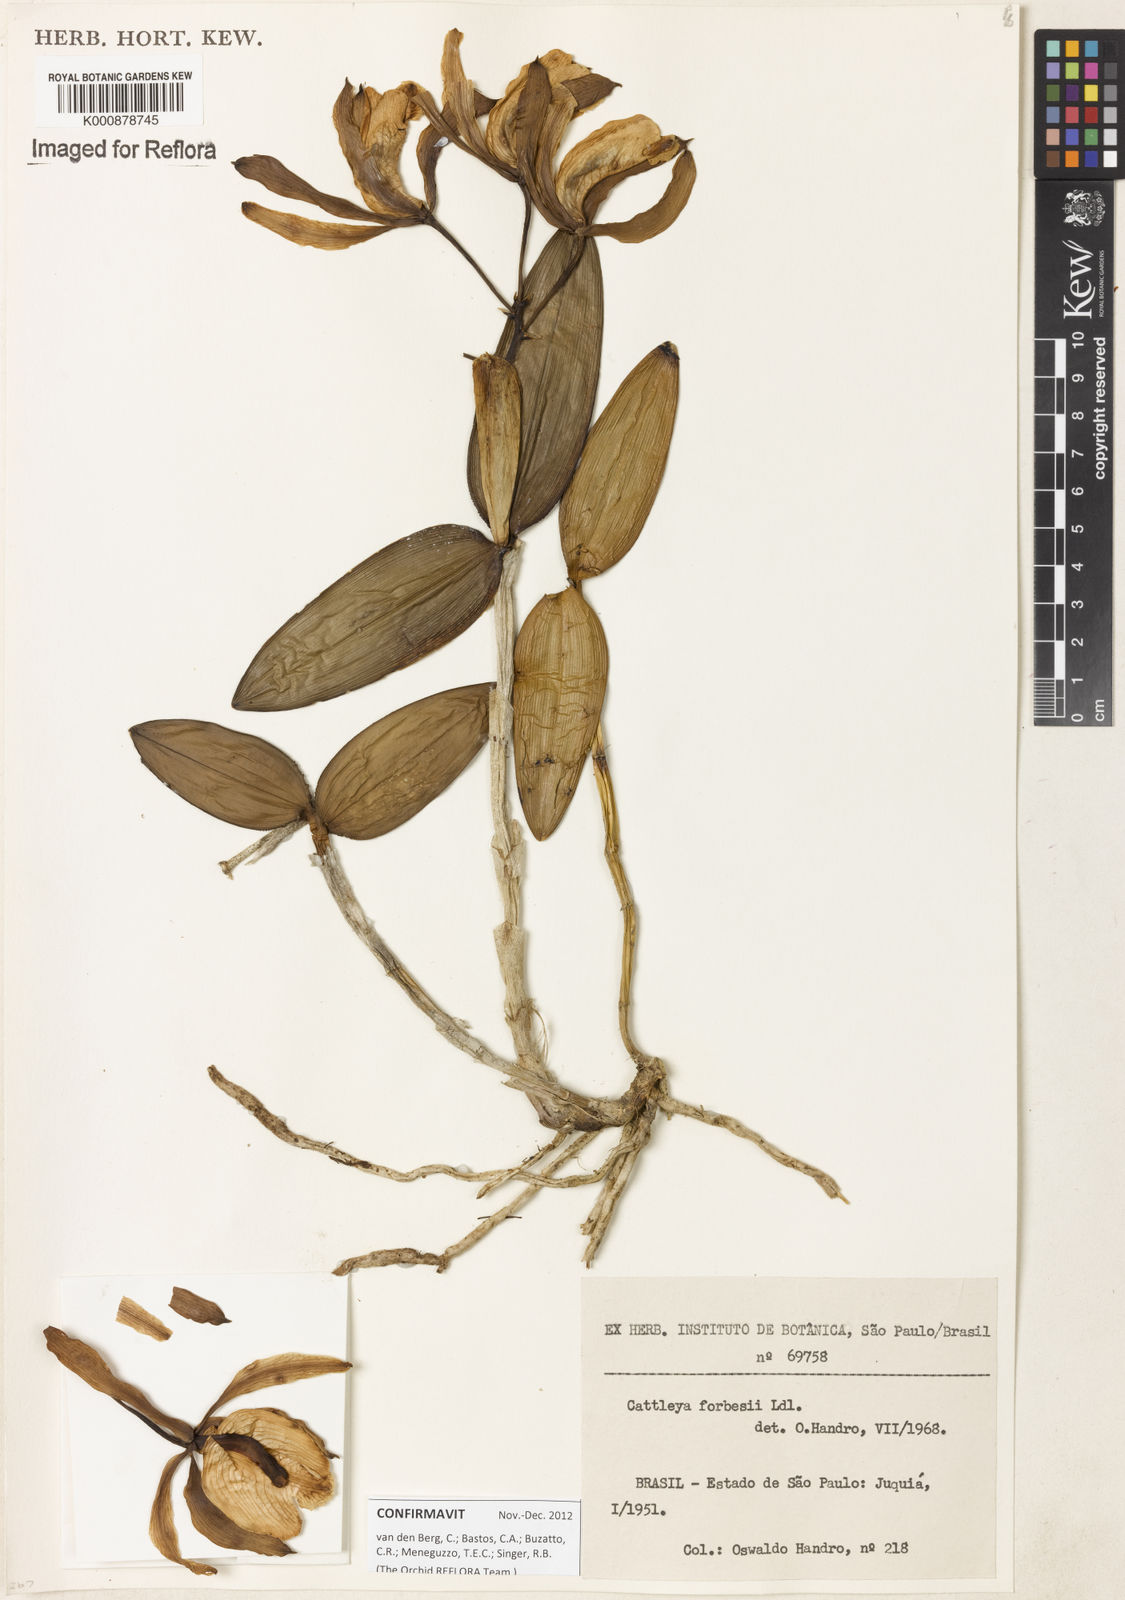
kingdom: Plantae
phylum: Tracheophyta
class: Liliopsida
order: Asparagales
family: Orchidaceae
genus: Cattleya
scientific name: Cattleya forbesii
